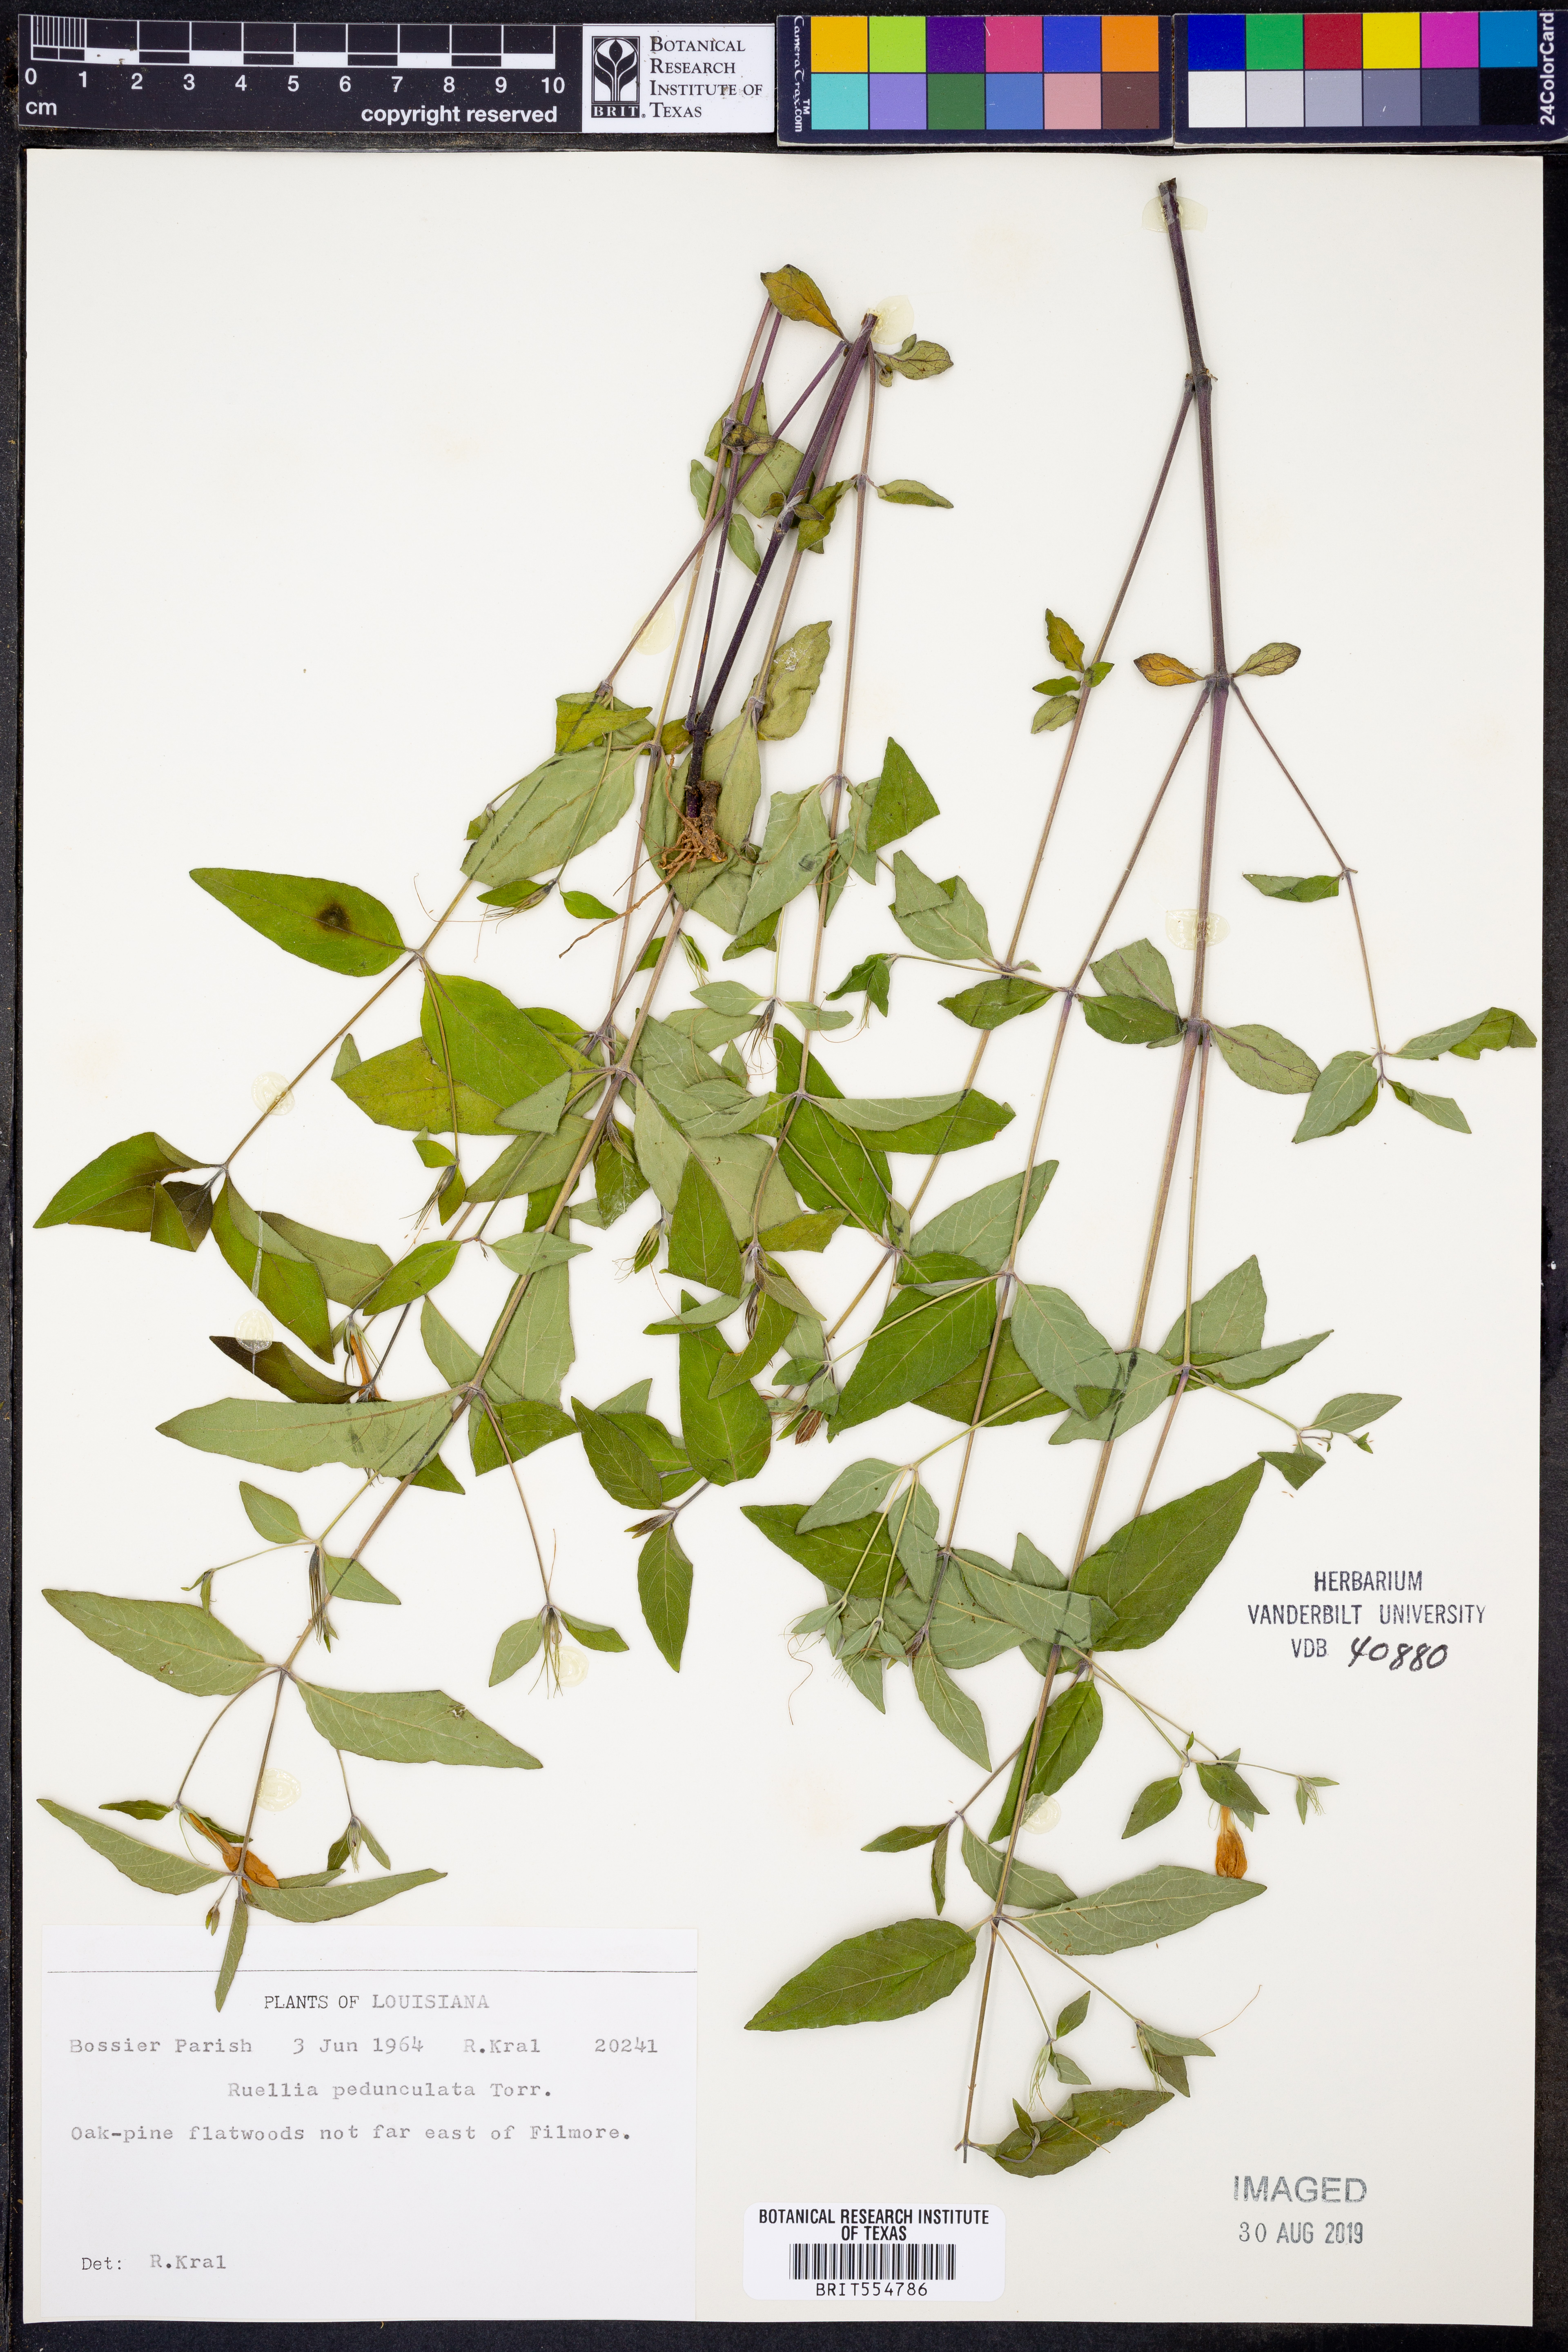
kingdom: Plantae
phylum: Tracheophyta
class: Magnoliopsida
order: Lamiales
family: Acanthaceae
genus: Ruellia
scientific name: Ruellia pedunculata
